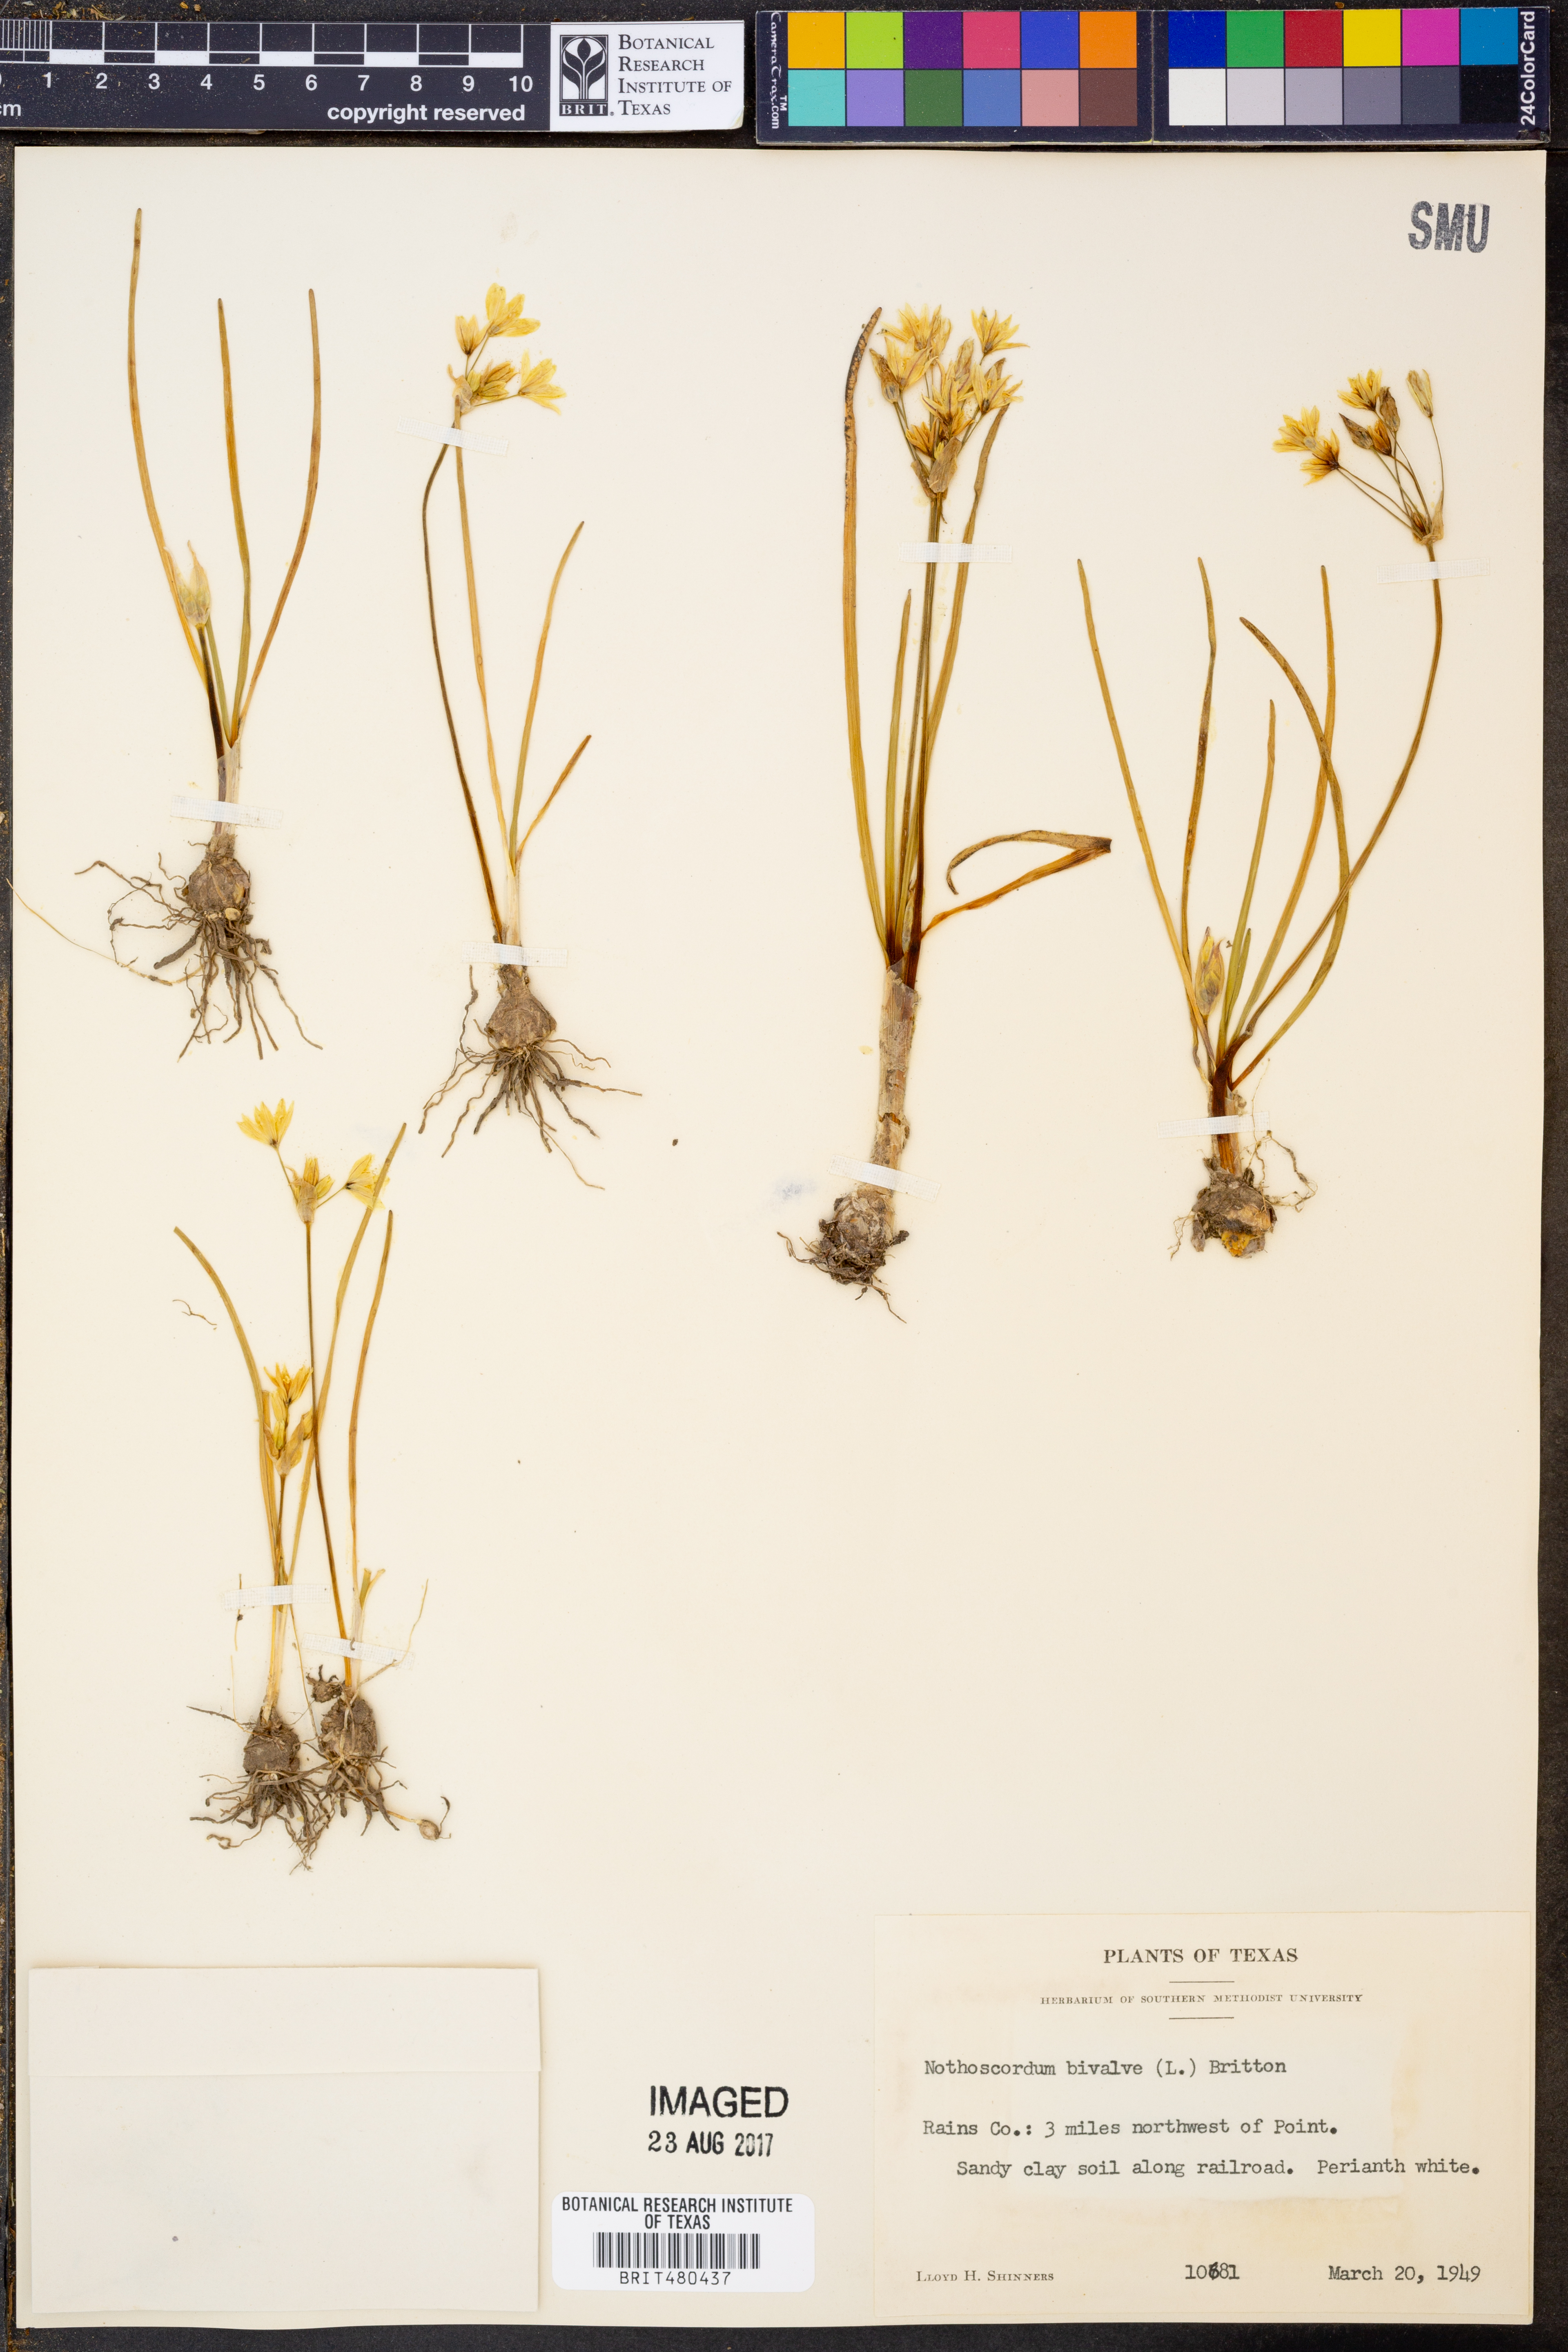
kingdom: Plantae
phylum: Tracheophyta
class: Liliopsida
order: Asparagales
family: Amaryllidaceae
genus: Nothoscordum
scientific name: Nothoscordum bivalve
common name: Crow-poison
